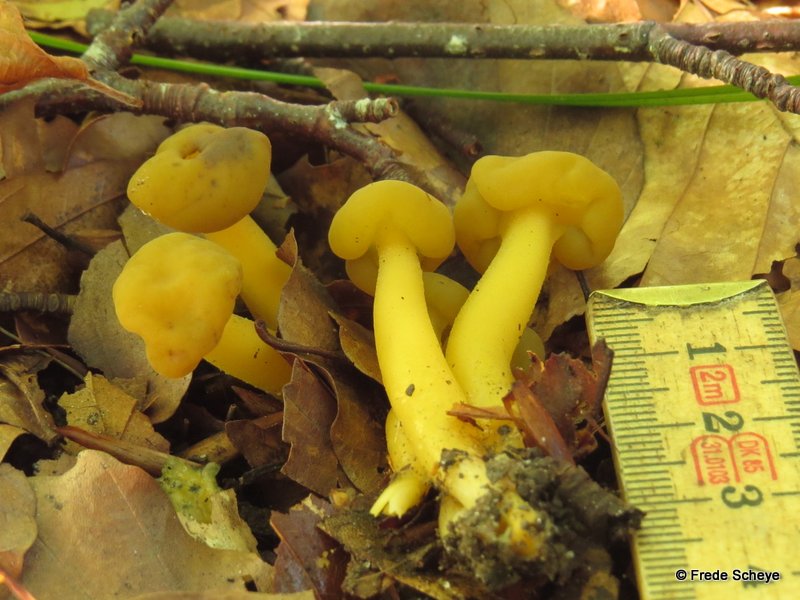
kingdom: Fungi
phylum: Ascomycota
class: Leotiomycetes
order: Leotiales
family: Leotiaceae
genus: Leotia
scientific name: Leotia lubrica
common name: ravsvamp
